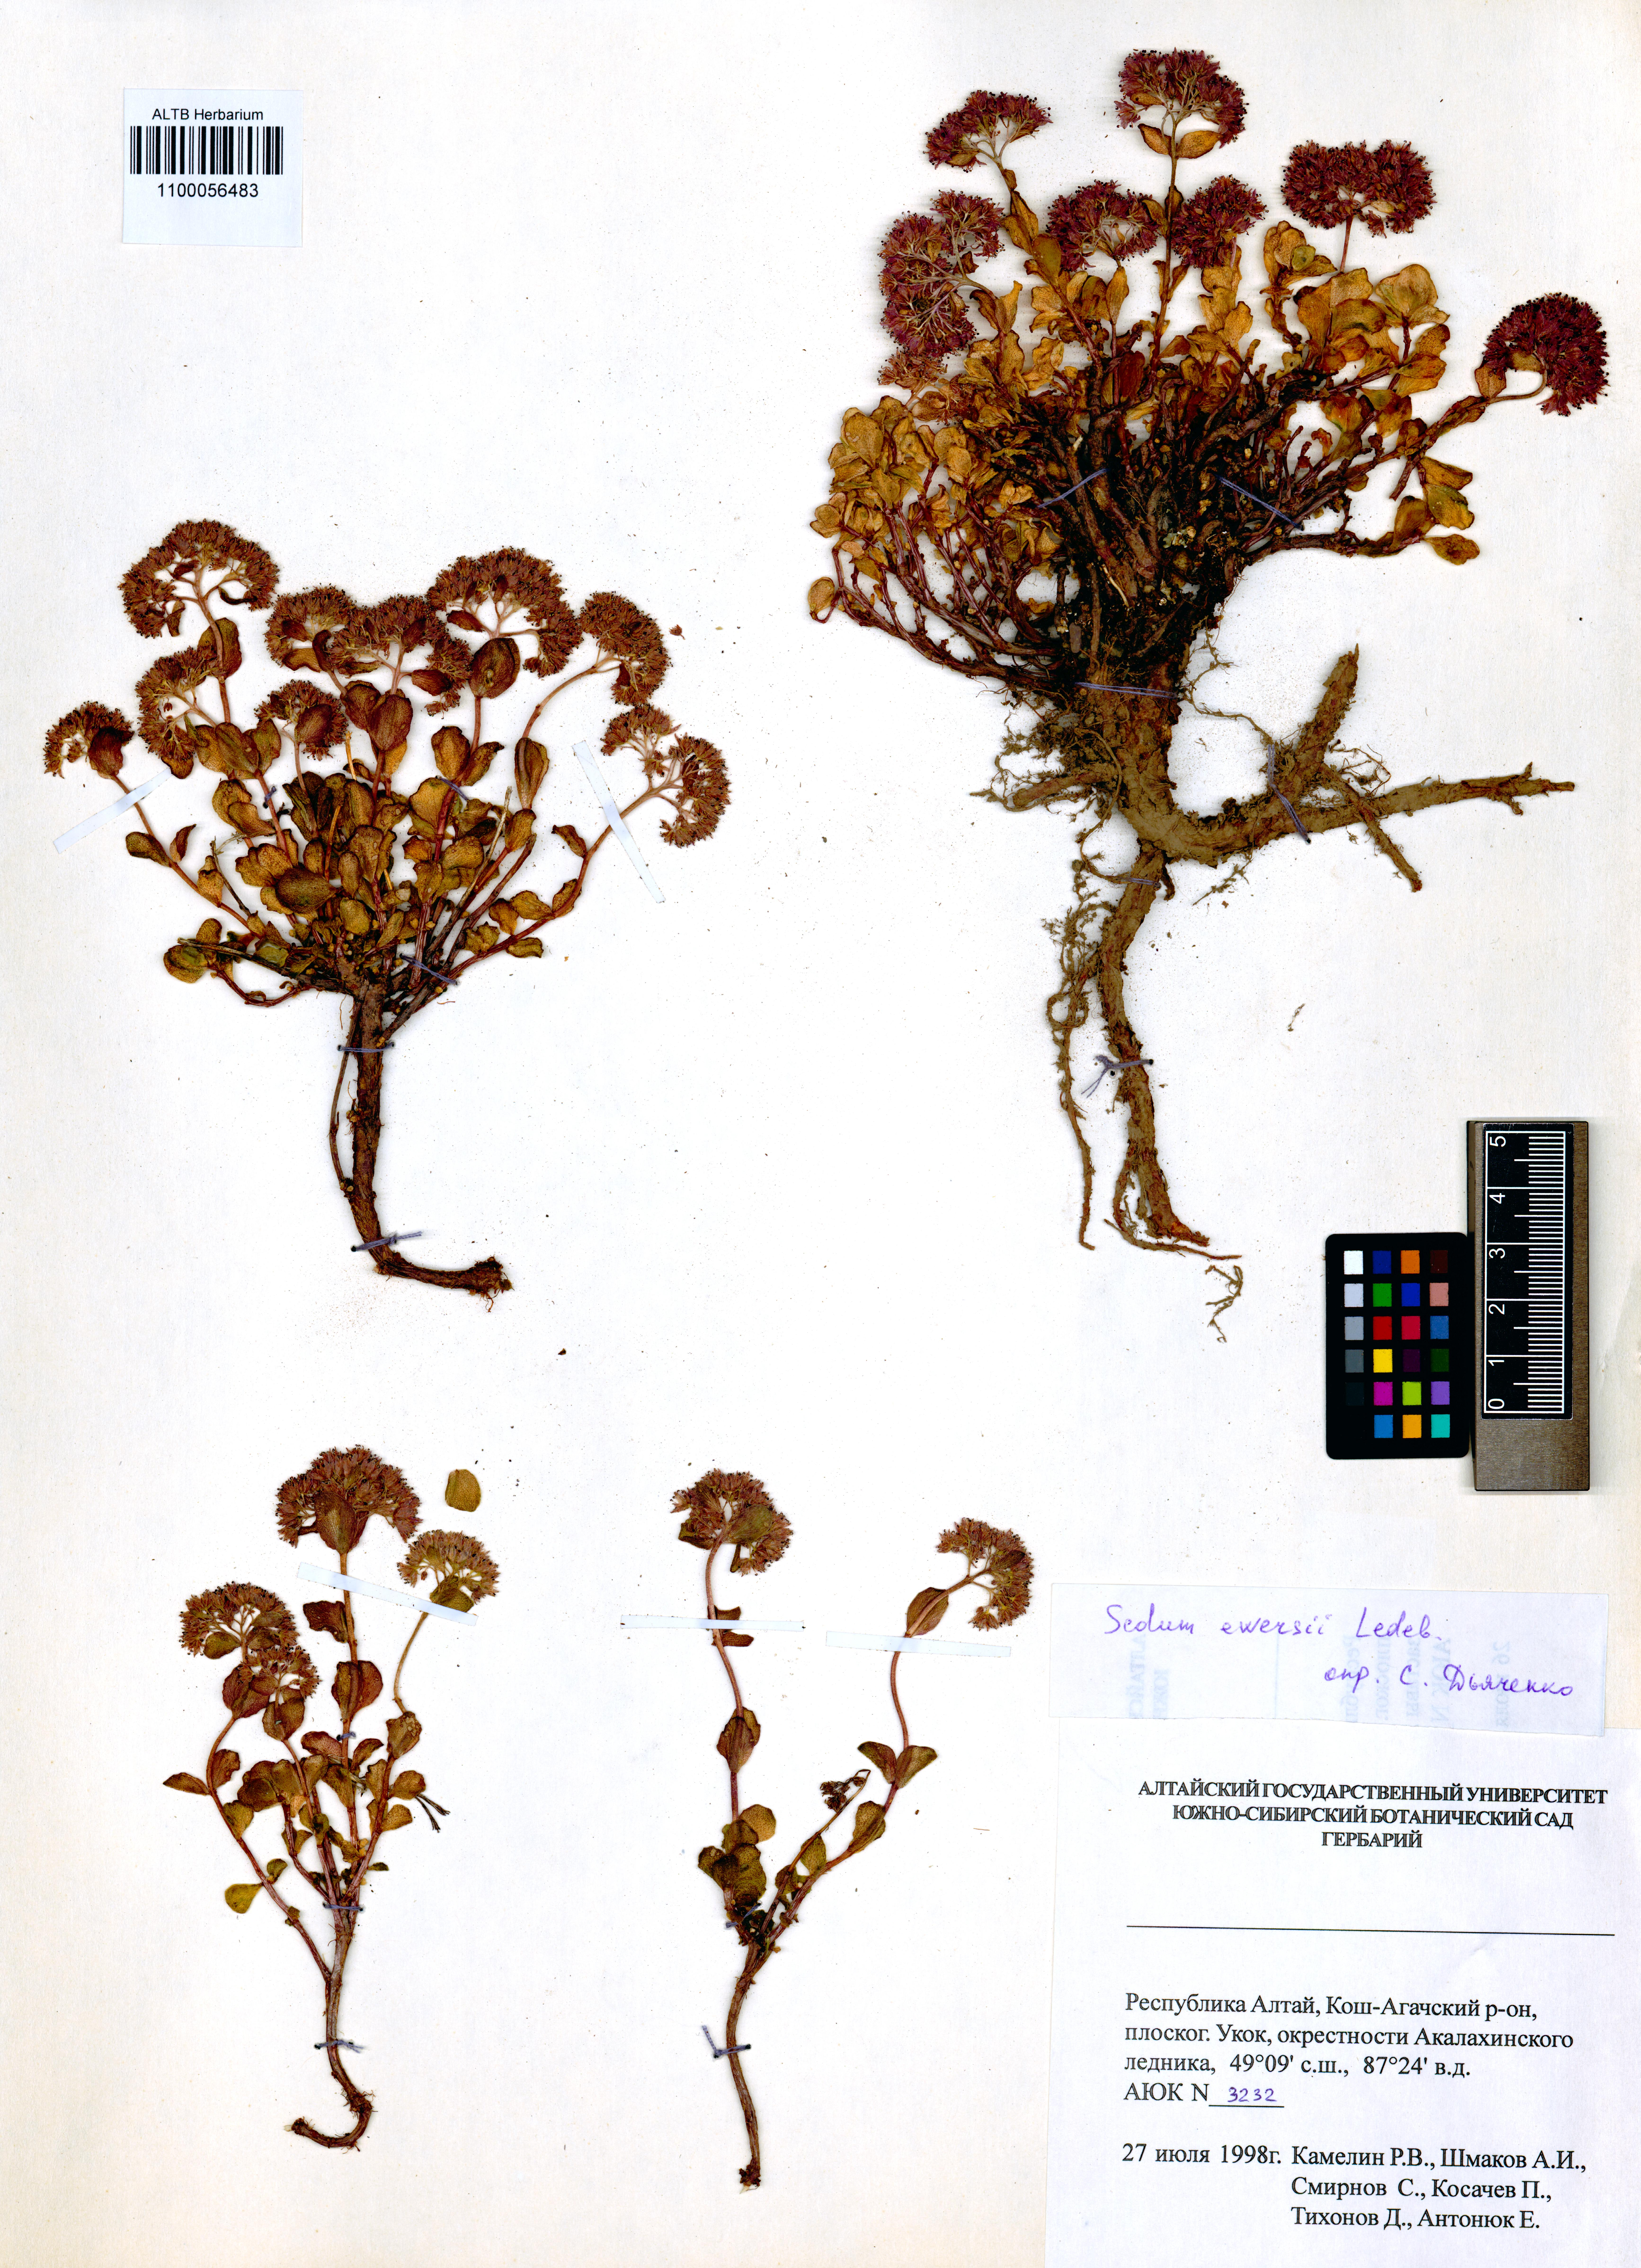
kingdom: Plantae
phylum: Tracheophyta
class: Magnoliopsida
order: Saxifragales
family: Crassulaceae
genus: Hylotelephium
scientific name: Hylotelephium ewersii
